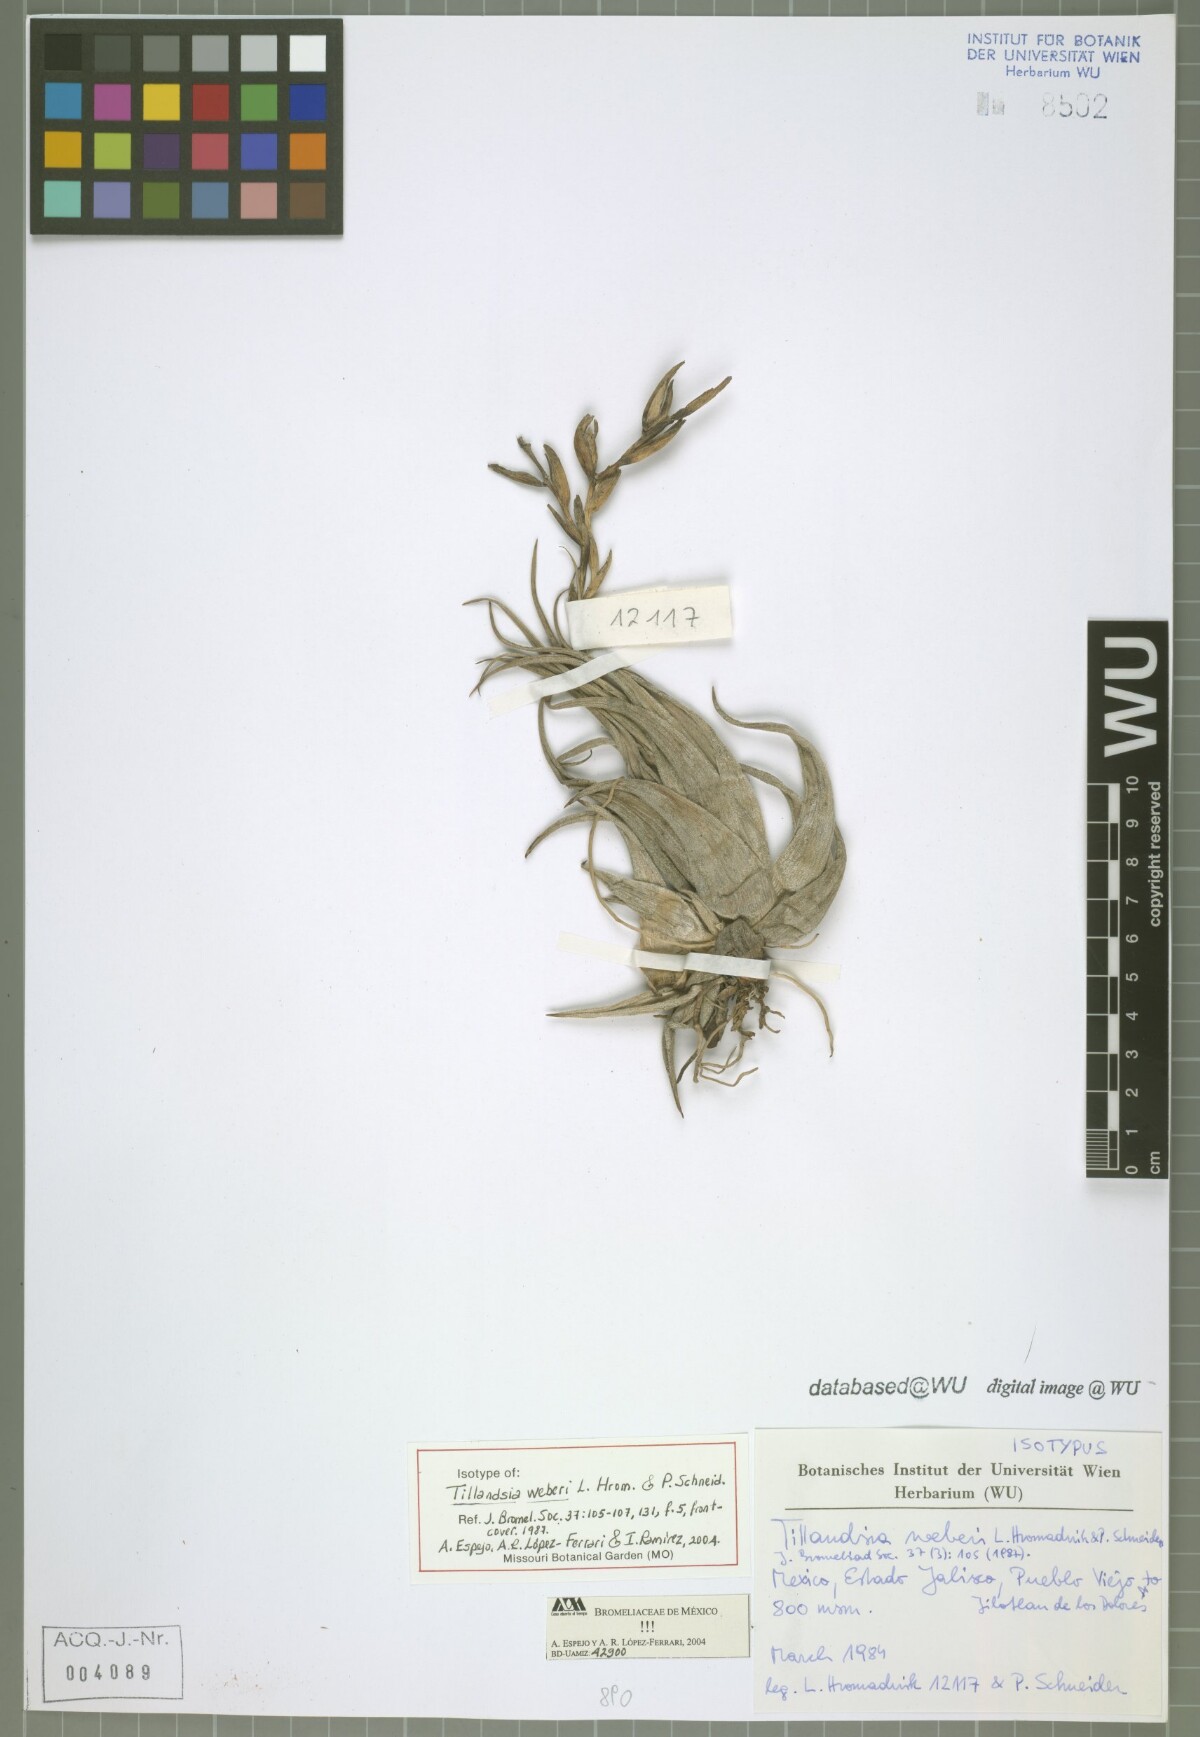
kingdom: Plantae
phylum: Tracheophyta
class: Liliopsida
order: Poales
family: Bromeliaceae
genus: Tillandsia
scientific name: Tillandsia weberi
